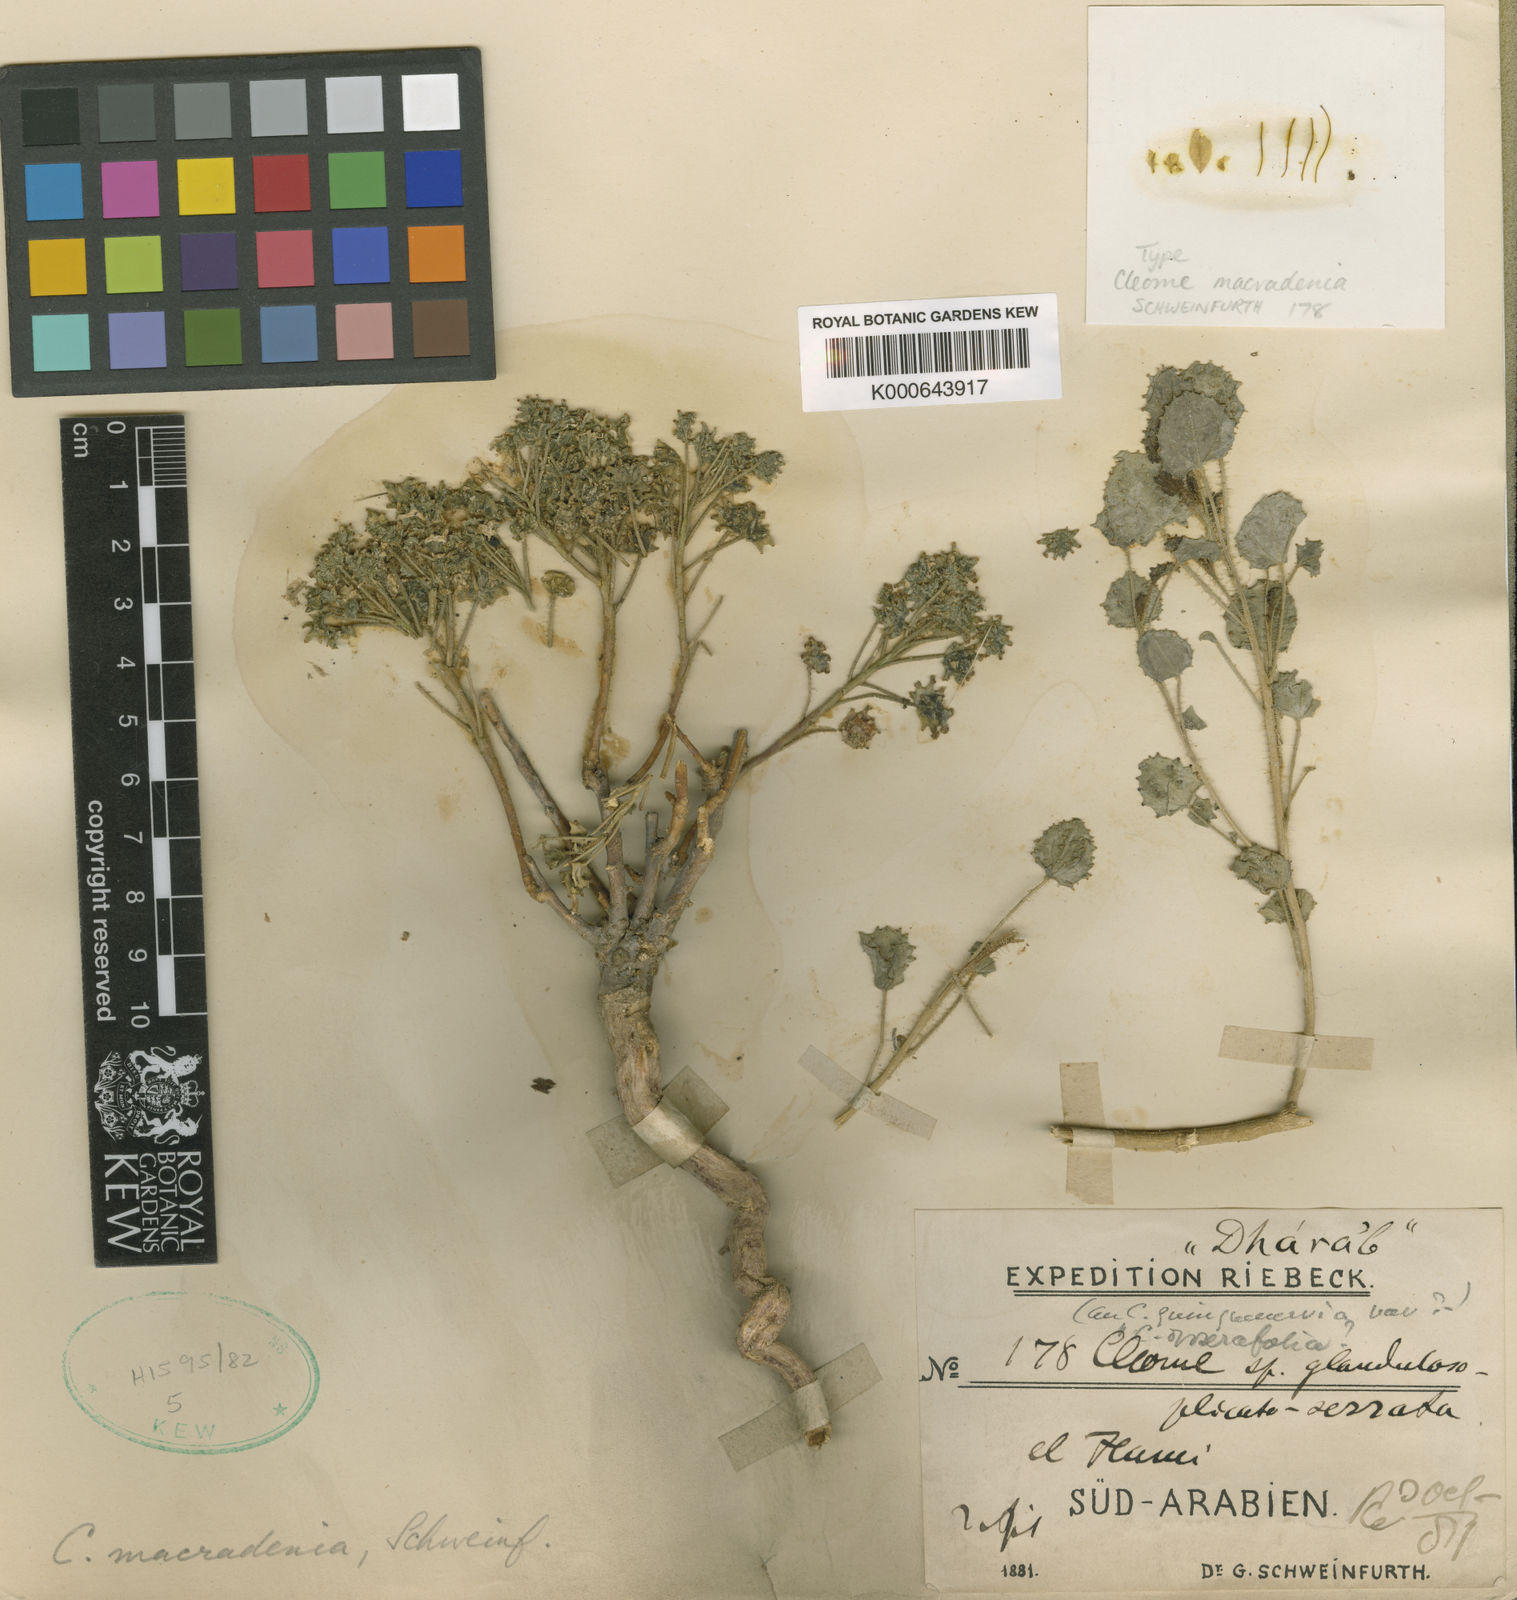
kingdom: Plantae
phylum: Tracheophyta
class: Magnoliopsida
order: Brassicales
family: Cleomaceae
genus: Rorida
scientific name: Rorida macradenia
